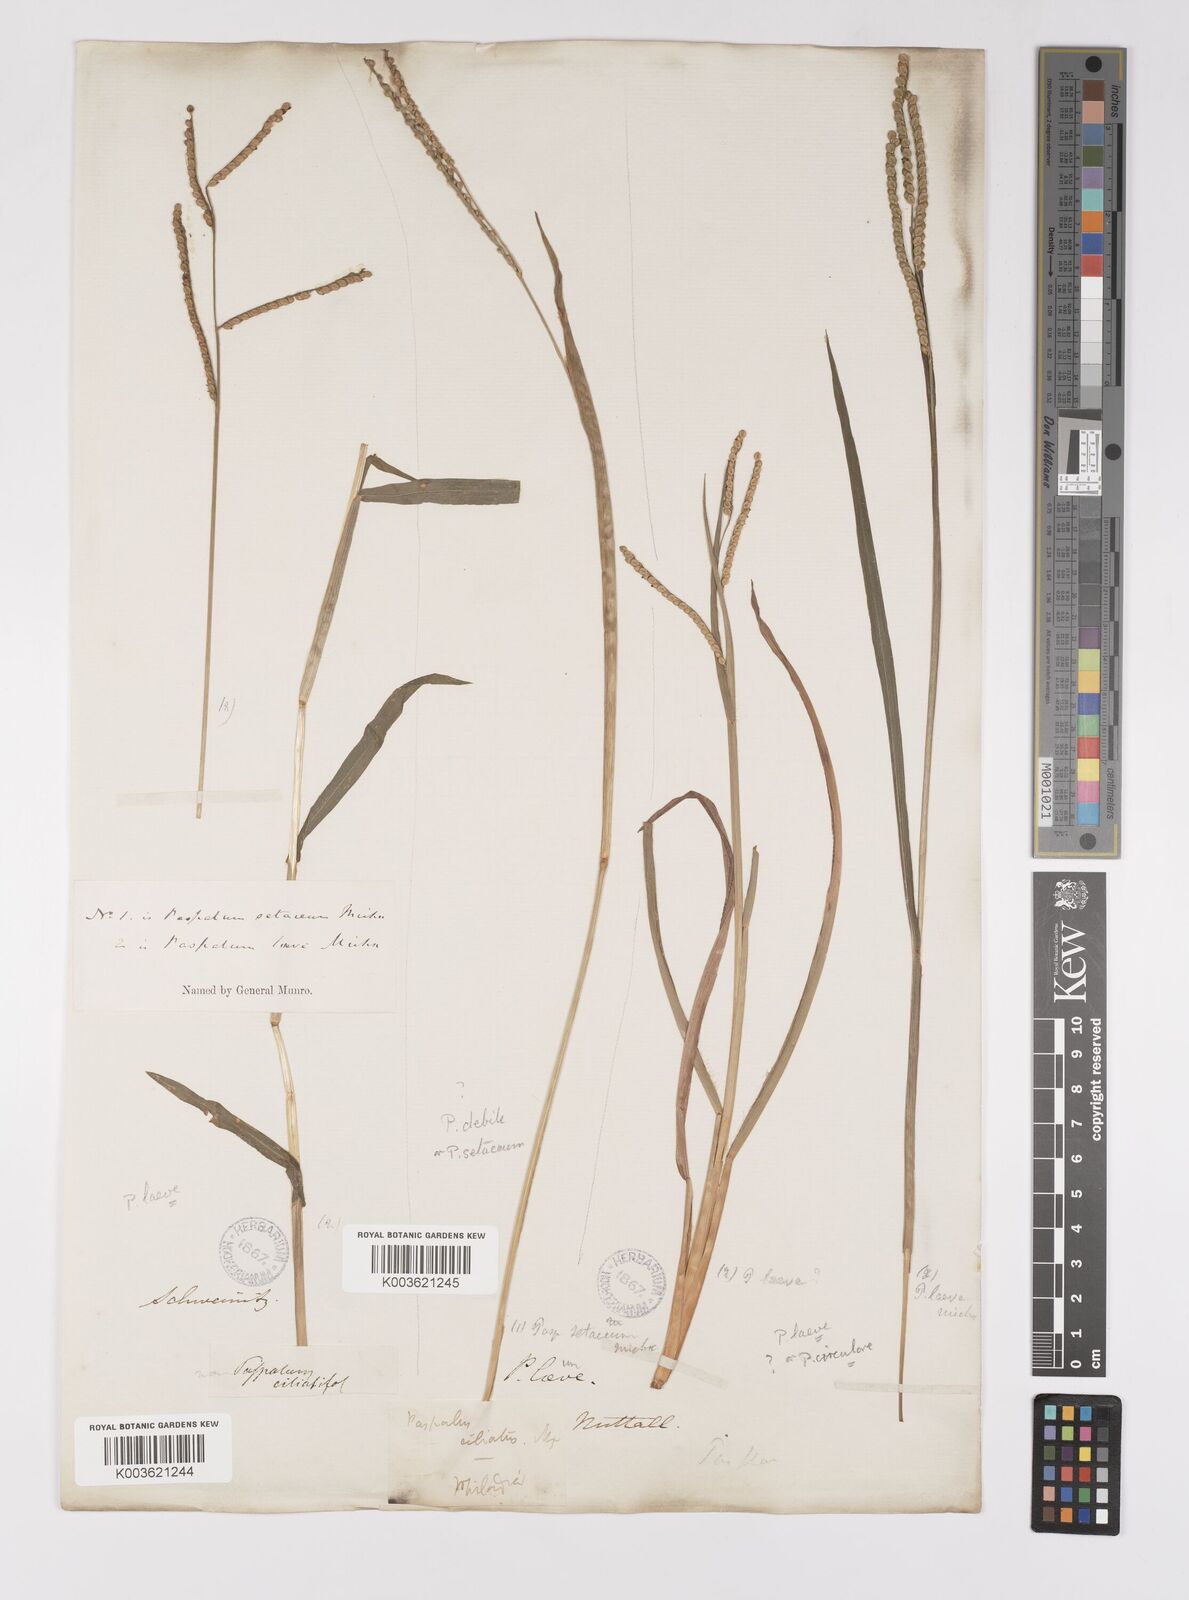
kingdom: Plantae
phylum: Tracheophyta
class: Liliopsida
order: Poales
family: Poaceae
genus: Paspalum
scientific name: Paspalum setaceum
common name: Slender paspalum
